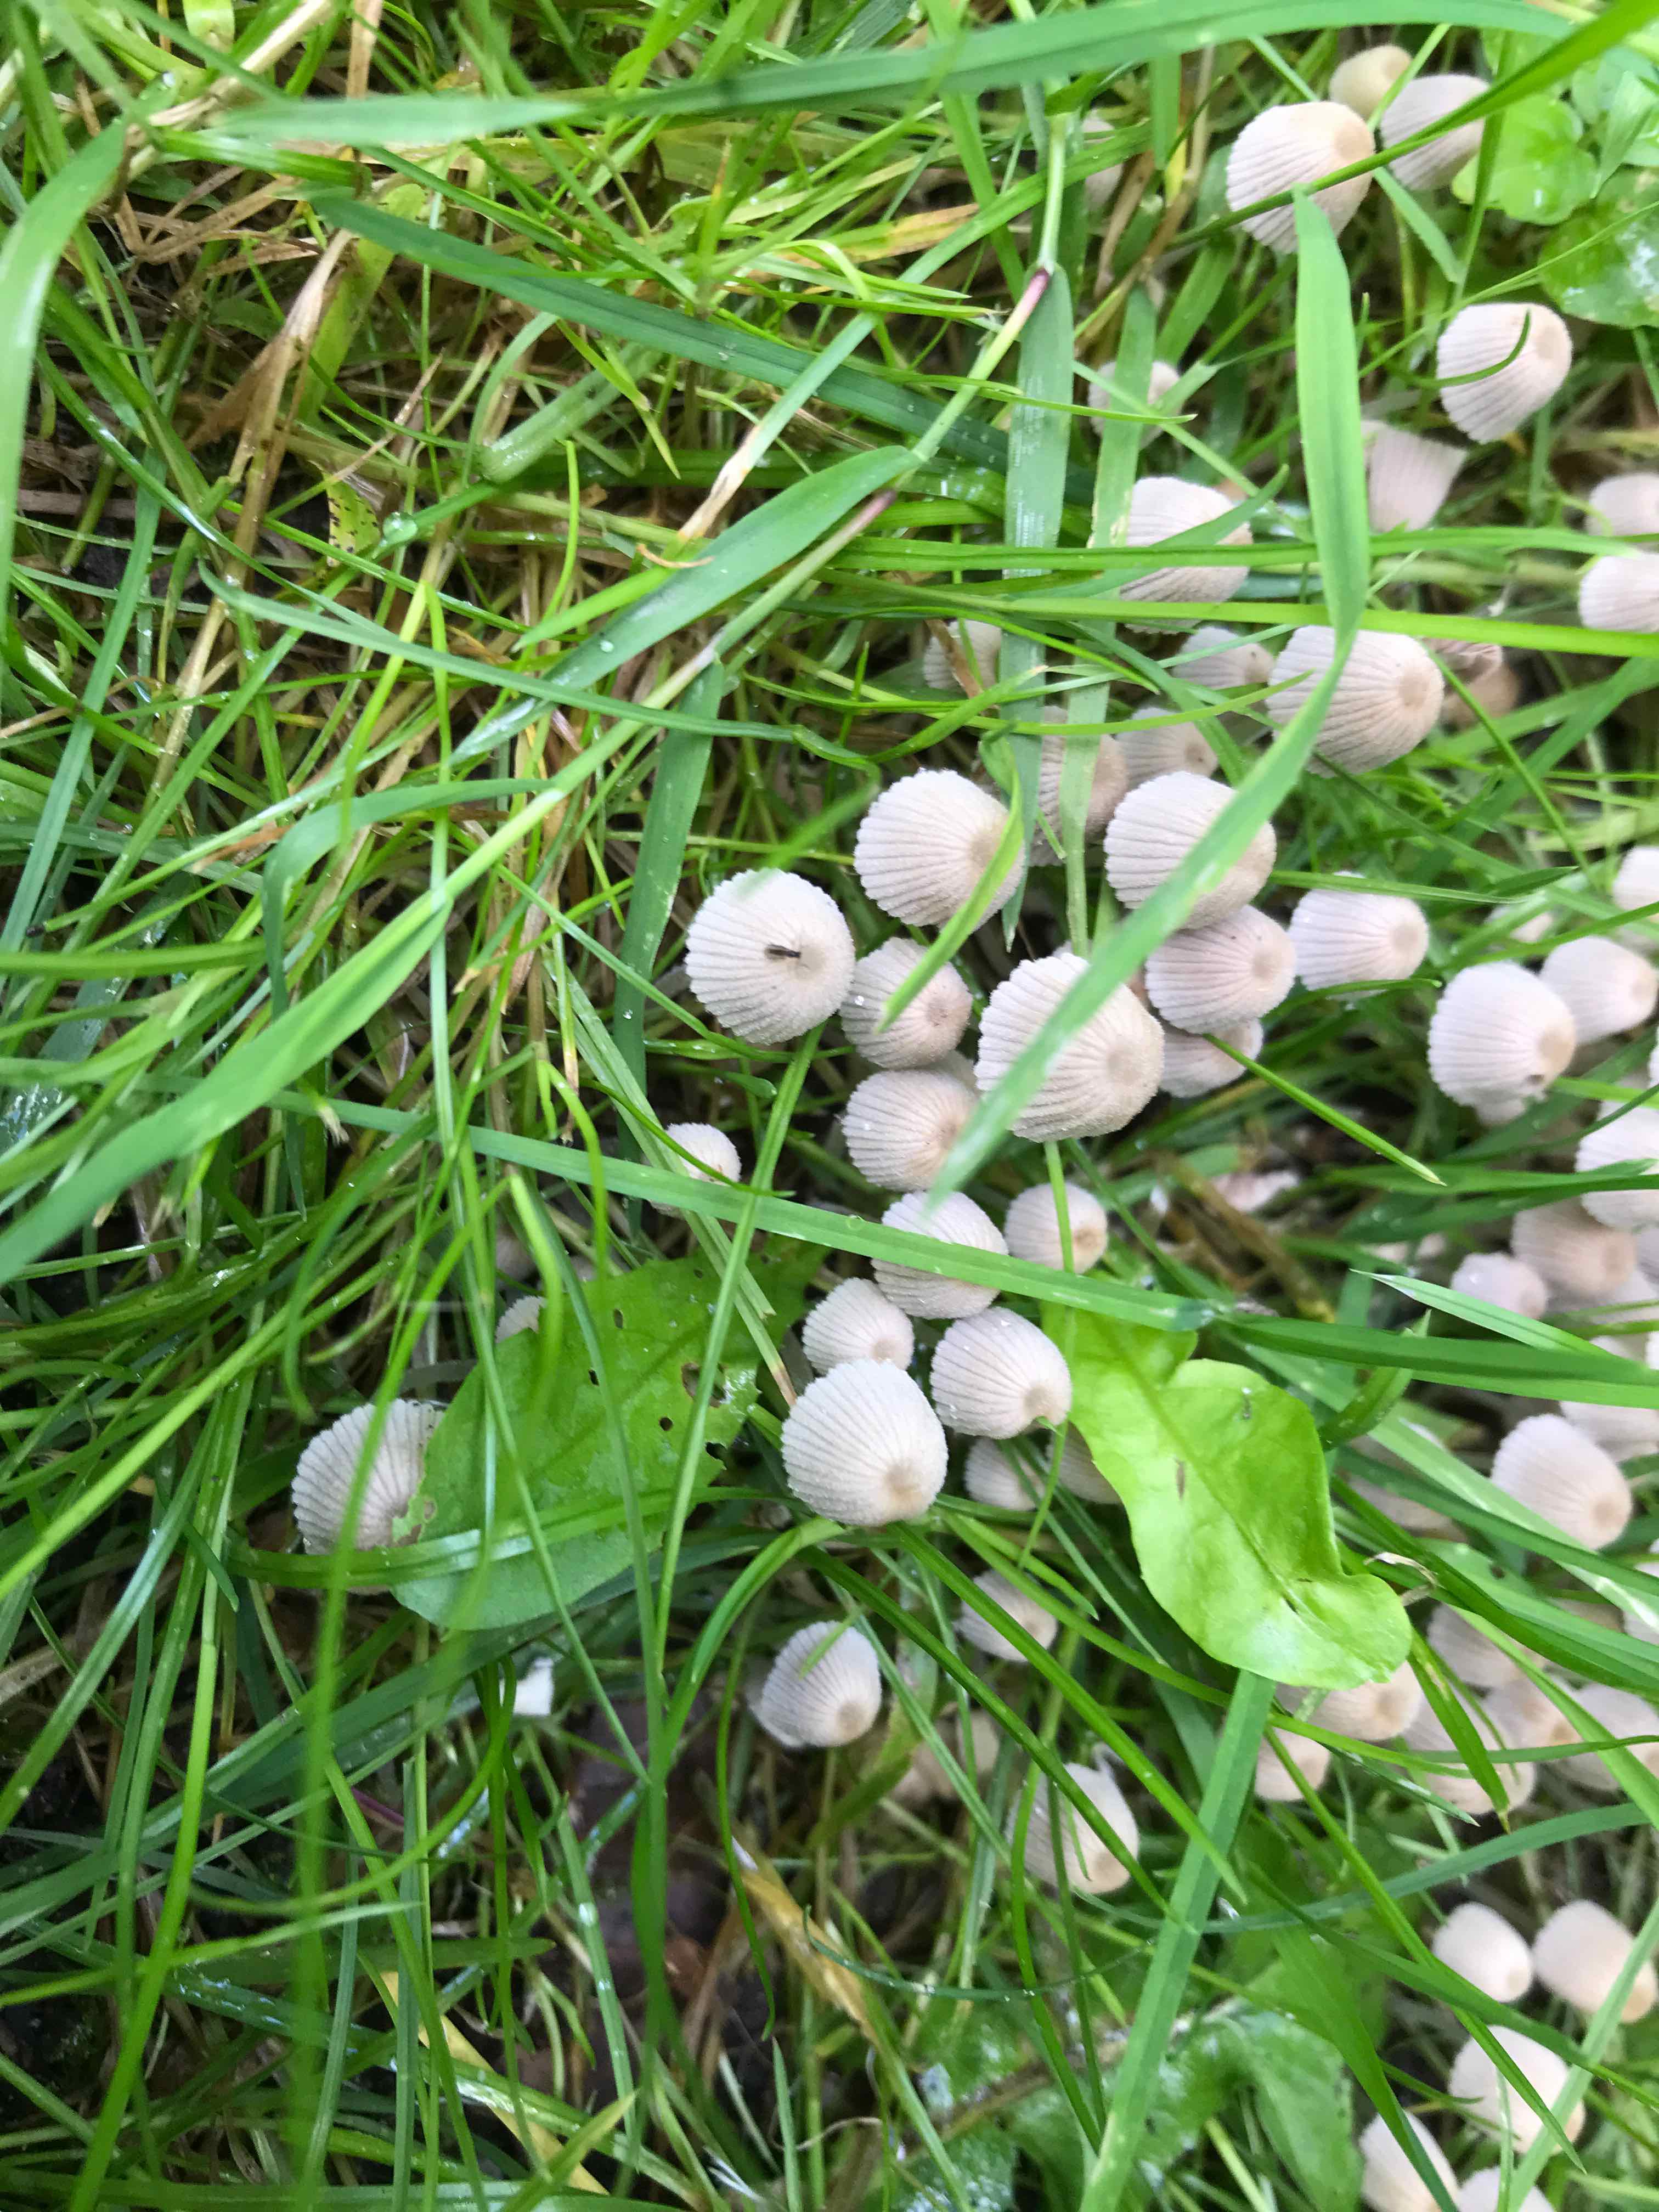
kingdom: Fungi
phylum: Basidiomycota
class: Agaricomycetes
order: Agaricales
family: Psathyrellaceae
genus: Coprinellus
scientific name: Coprinellus disseminatus
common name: bredsået blækhat
